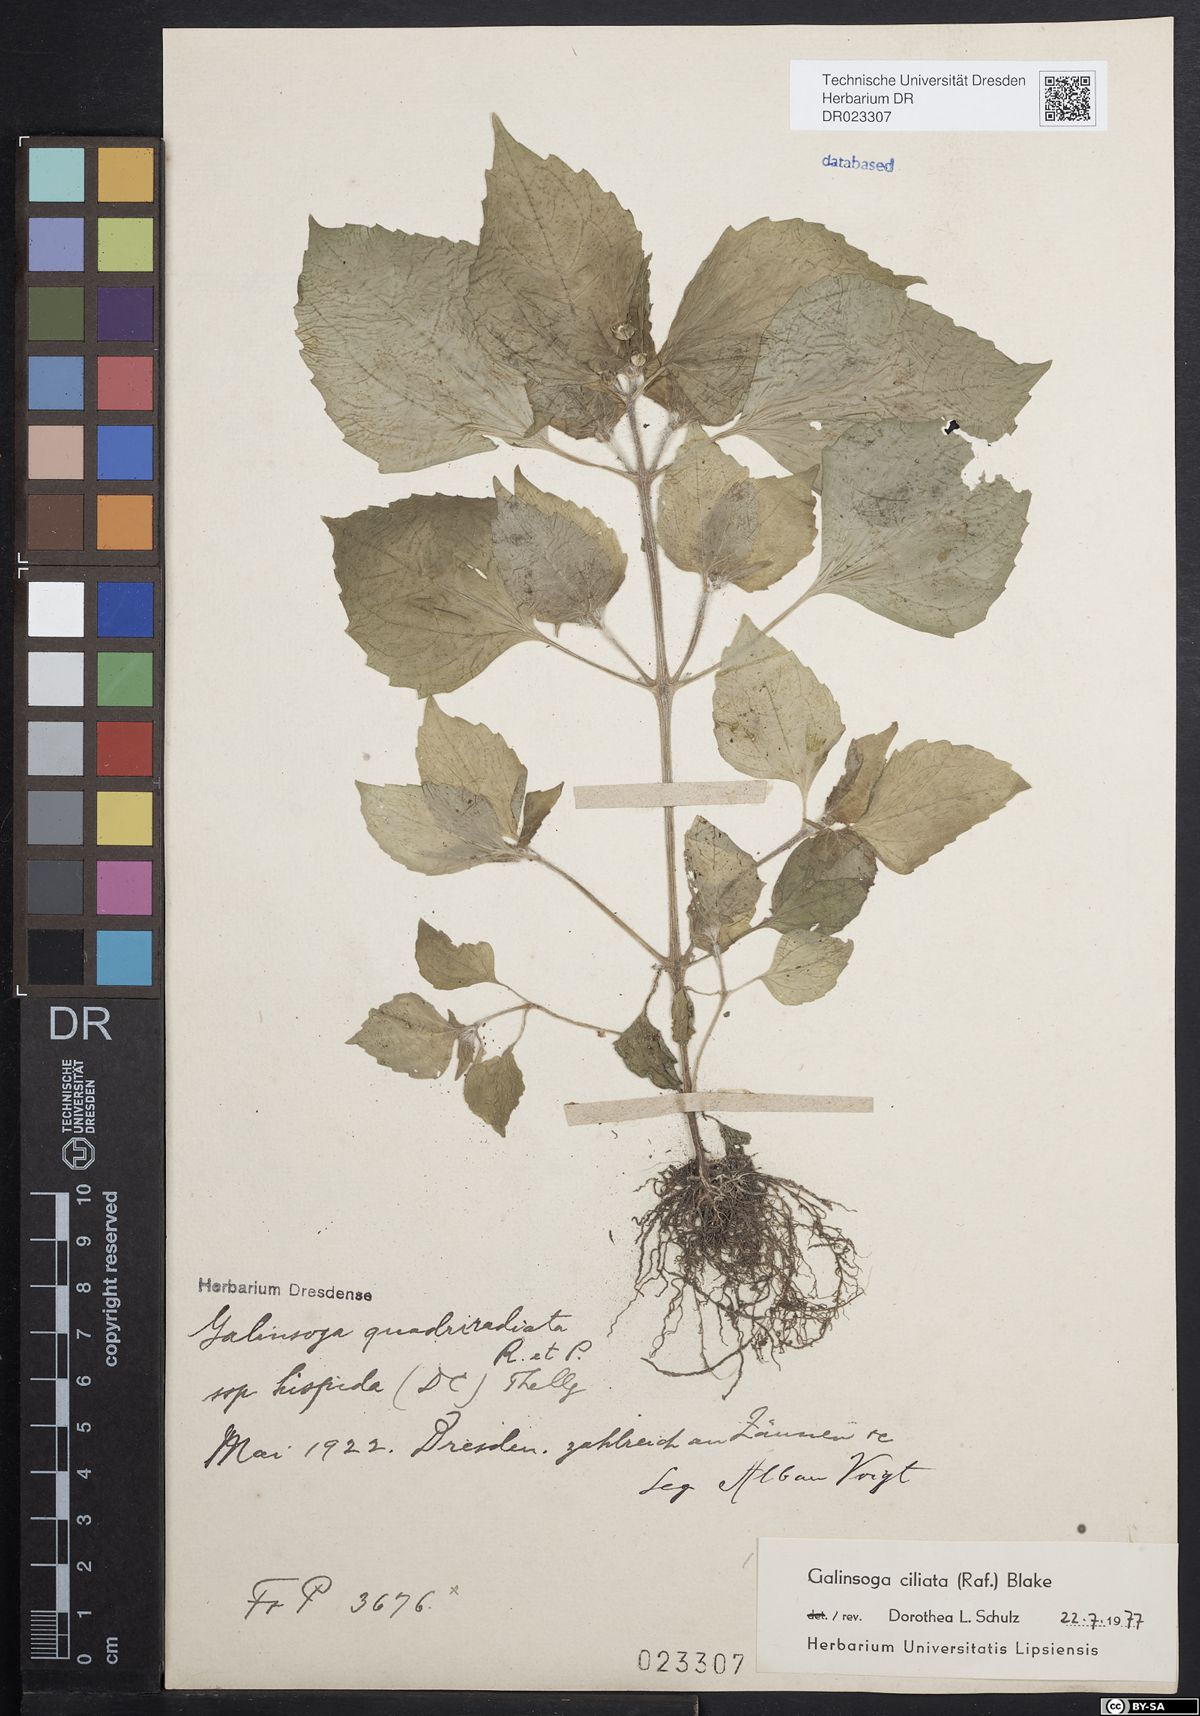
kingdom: Plantae
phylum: Tracheophyta
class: Magnoliopsida
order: Asterales
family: Asteraceae
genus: Galinsoga
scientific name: Galinsoga quadriradiata
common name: Shaggy soldier
